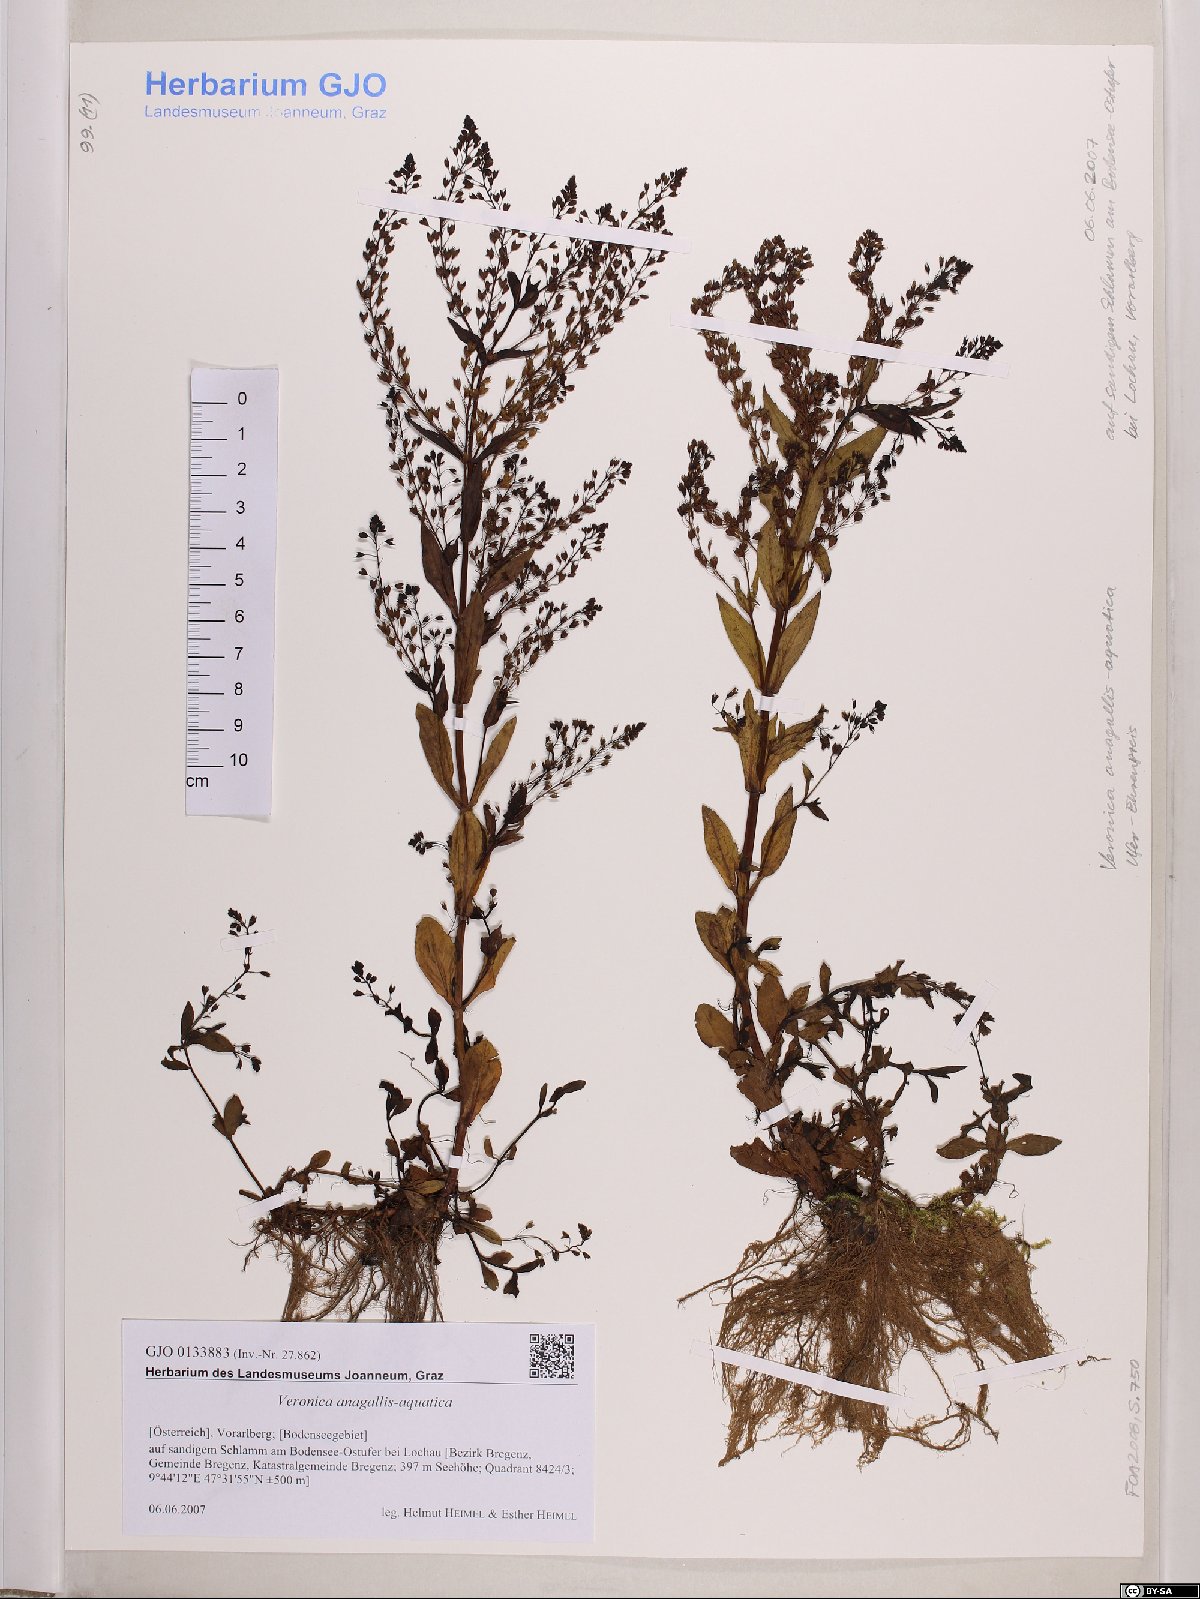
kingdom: Plantae
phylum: Tracheophyta
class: Magnoliopsida
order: Lamiales
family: Plantaginaceae
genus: Veronica
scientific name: Veronica anagallis-aquatica
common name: Water speedwell
